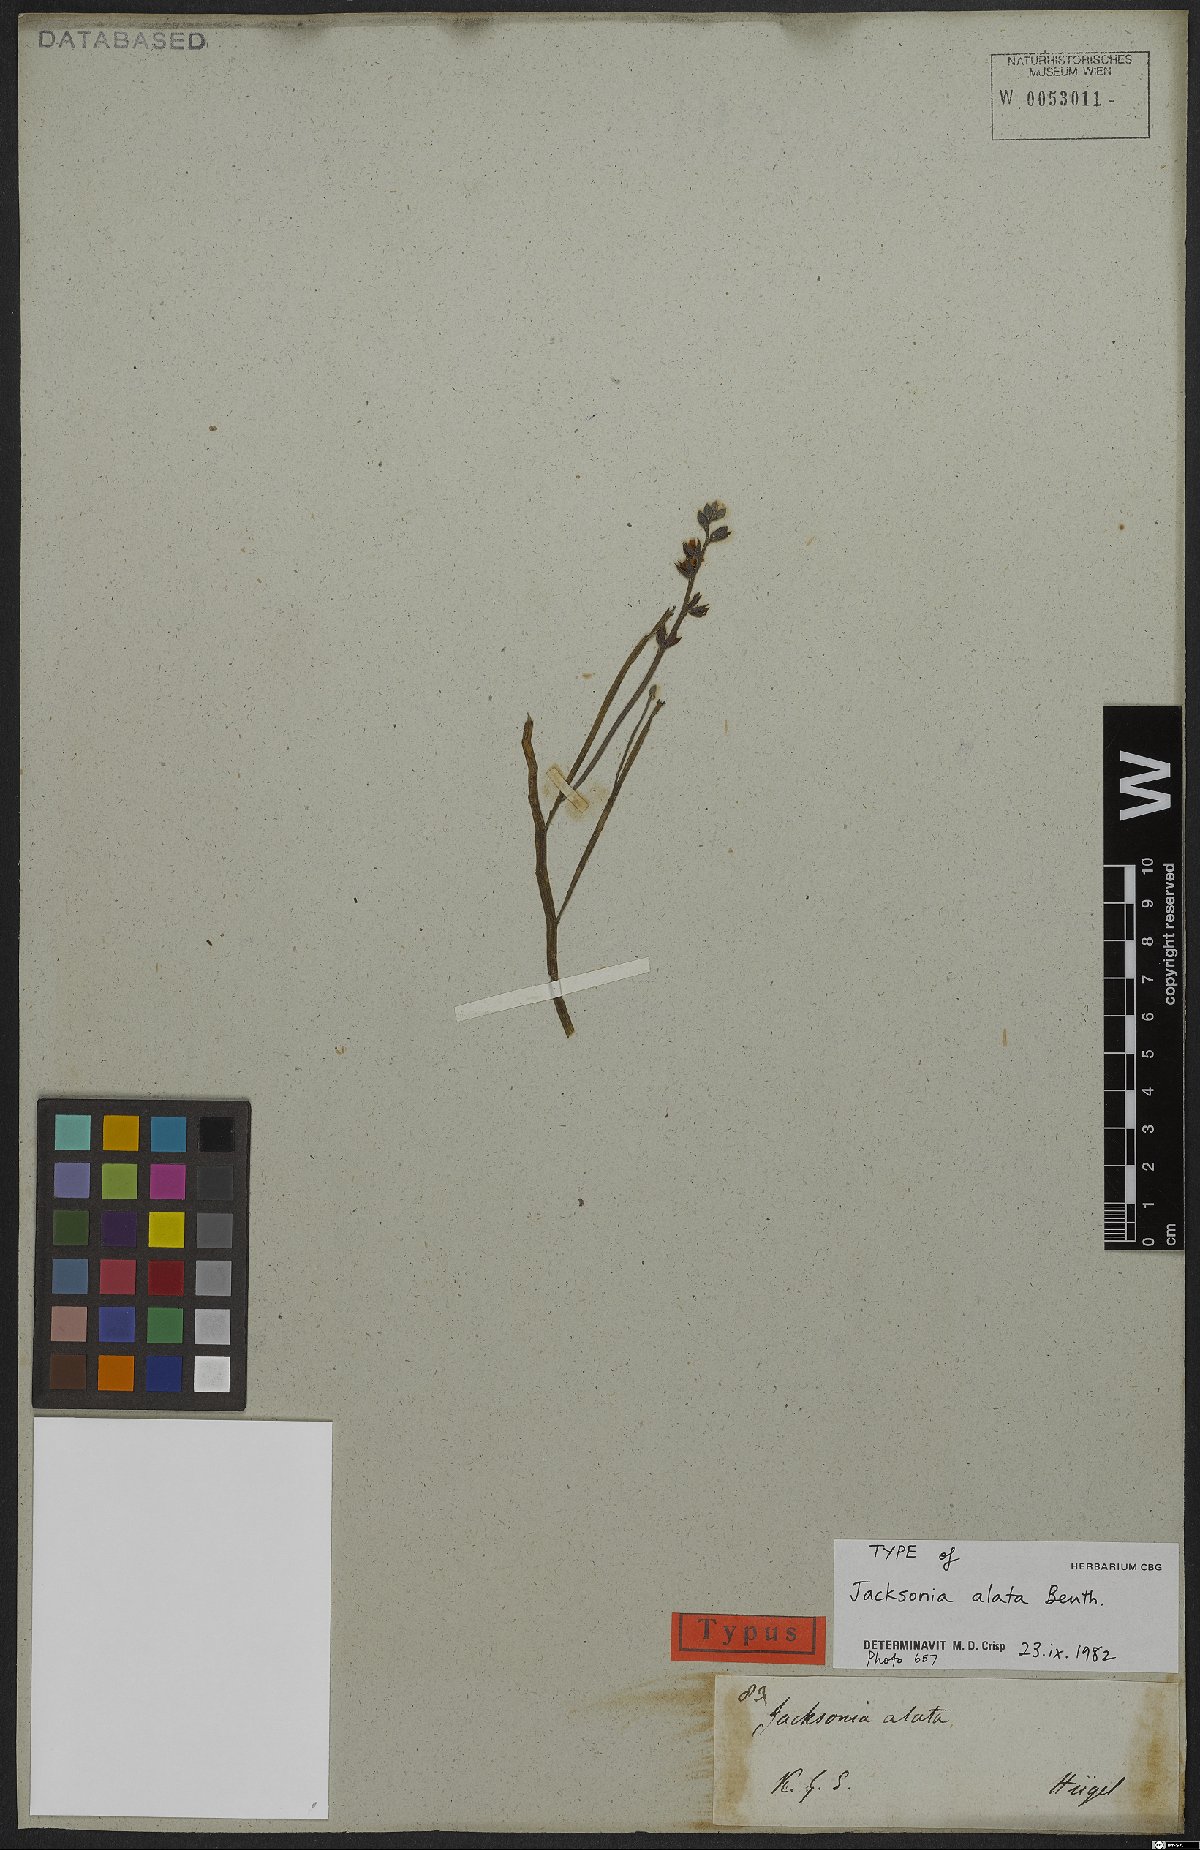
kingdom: Plantae
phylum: Tracheophyta
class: Magnoliopsida
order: Fabales
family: Fabaceae
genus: Jacksonia
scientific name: Jacksonia alata
